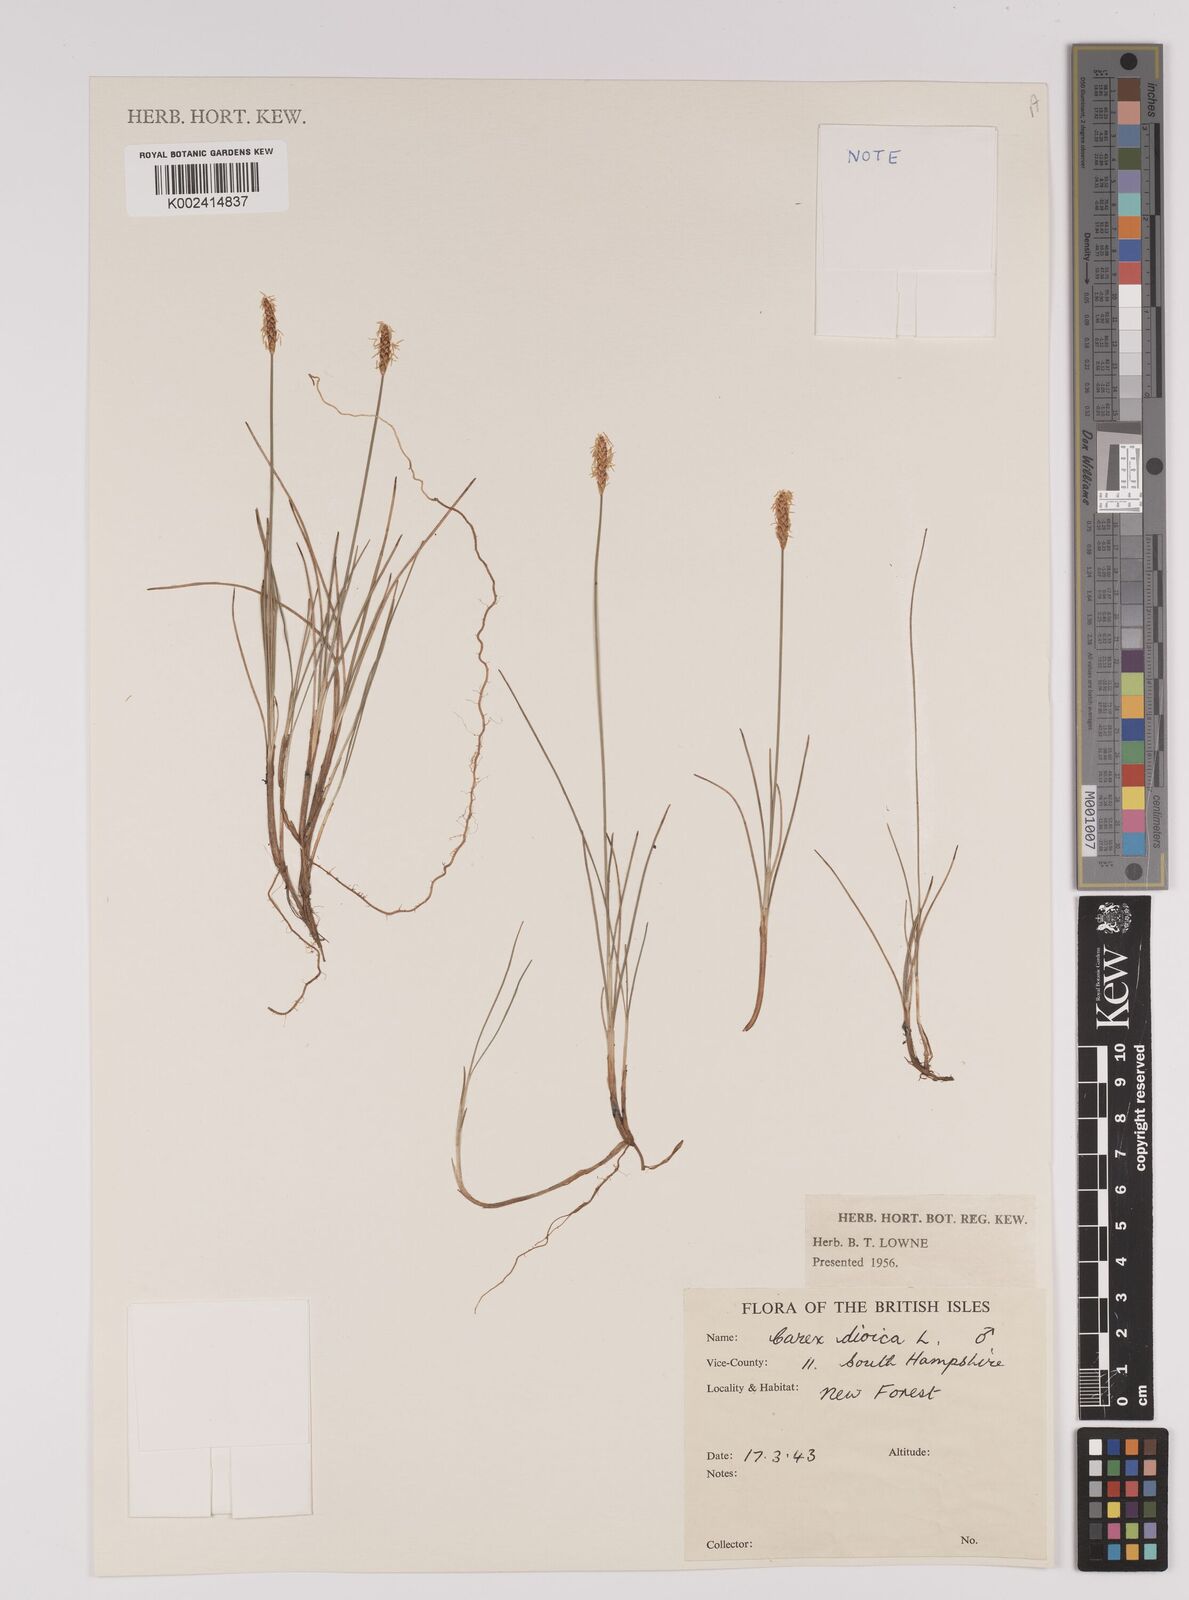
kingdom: Plantae
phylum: Tracheophyta
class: Liliopsida
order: Poales
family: Cyperaceae
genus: Carex
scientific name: Carex dioica
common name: Dioecious sedge
